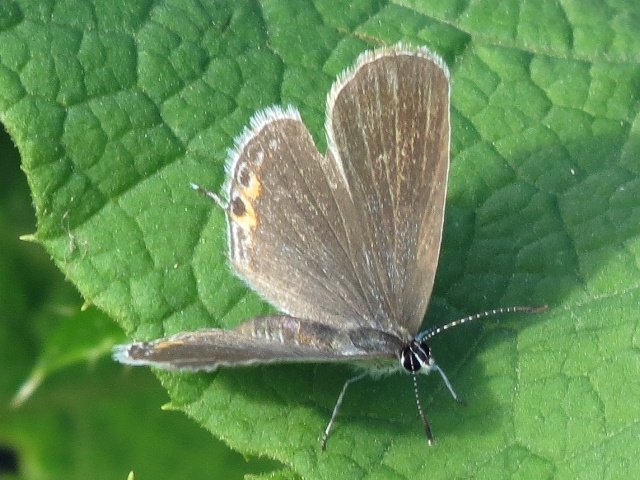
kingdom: Animalia
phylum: Arthropoda
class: Insecta
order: Lepidoptera
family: Lycaenidae
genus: Elkalyce
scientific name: Elkalyce comyntas
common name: Eastern Tailed-Blue
